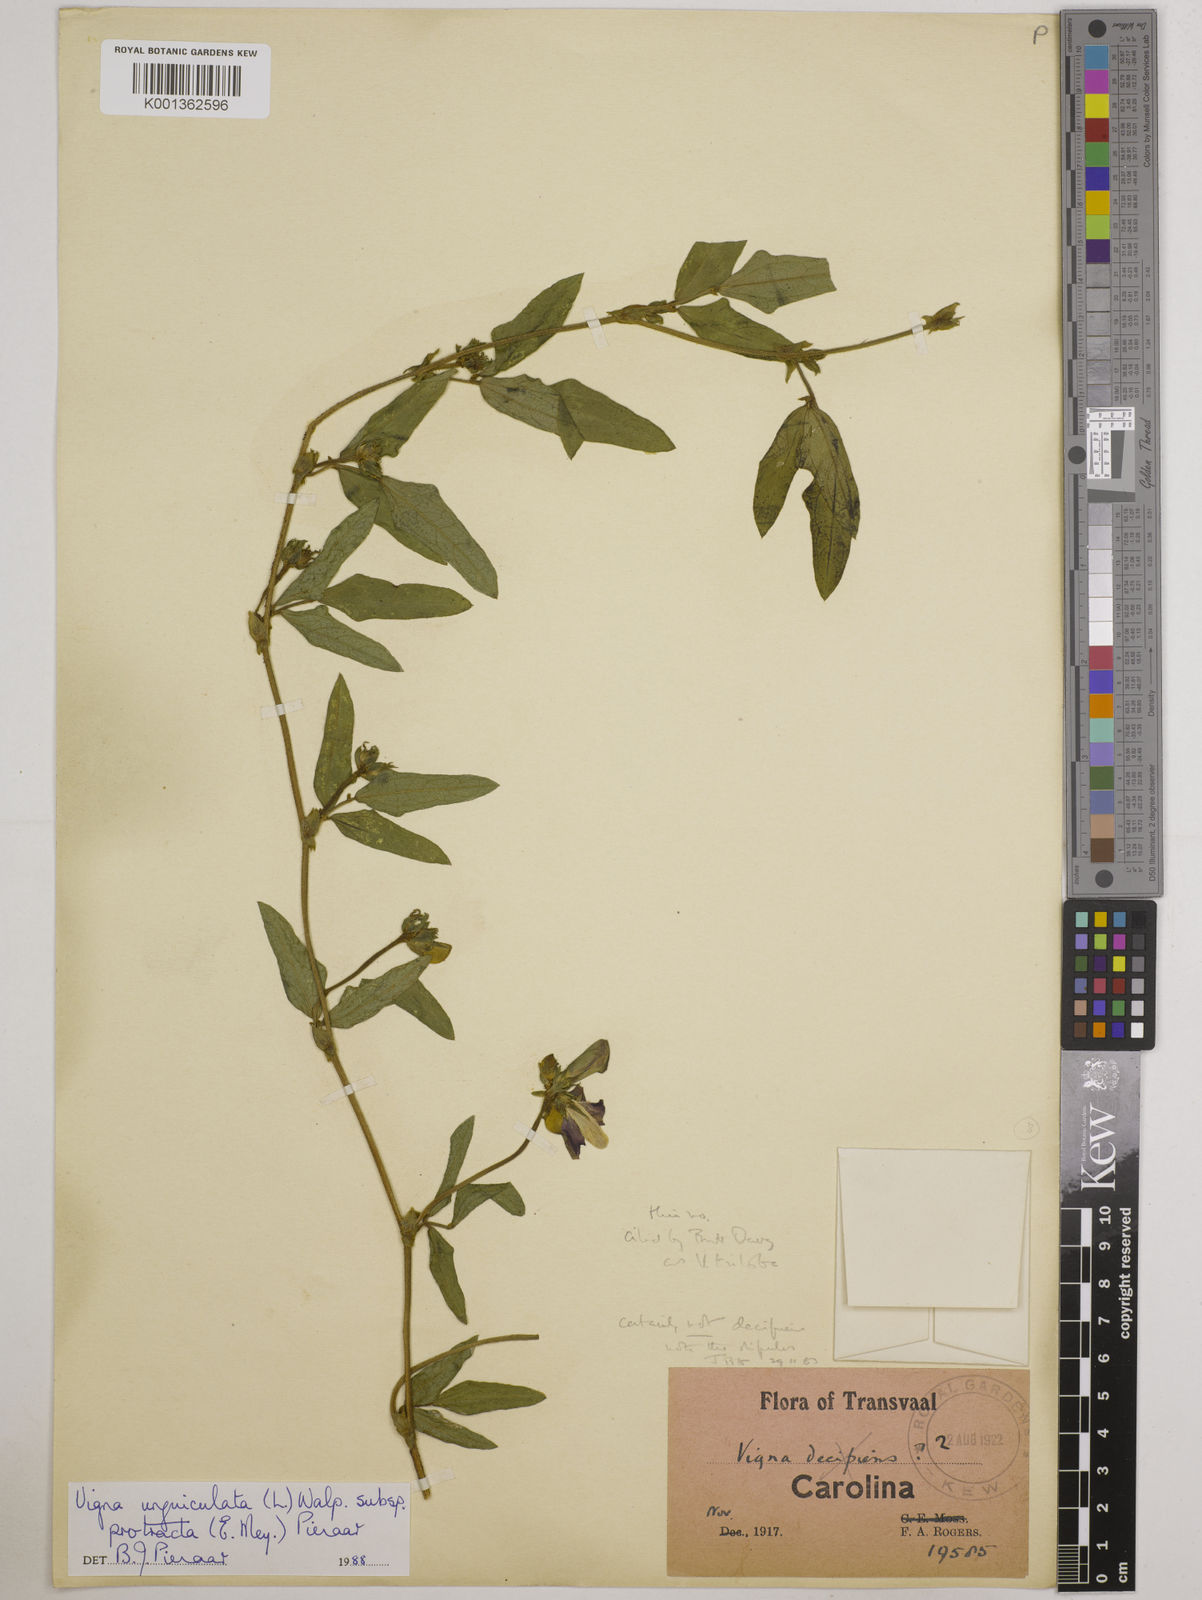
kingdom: Plantae
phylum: Tracheophyta
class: Magnoliopsida
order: Fabales
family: Fabaceae
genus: Vigna
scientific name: Vigna unguiculata
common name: Cowpea
